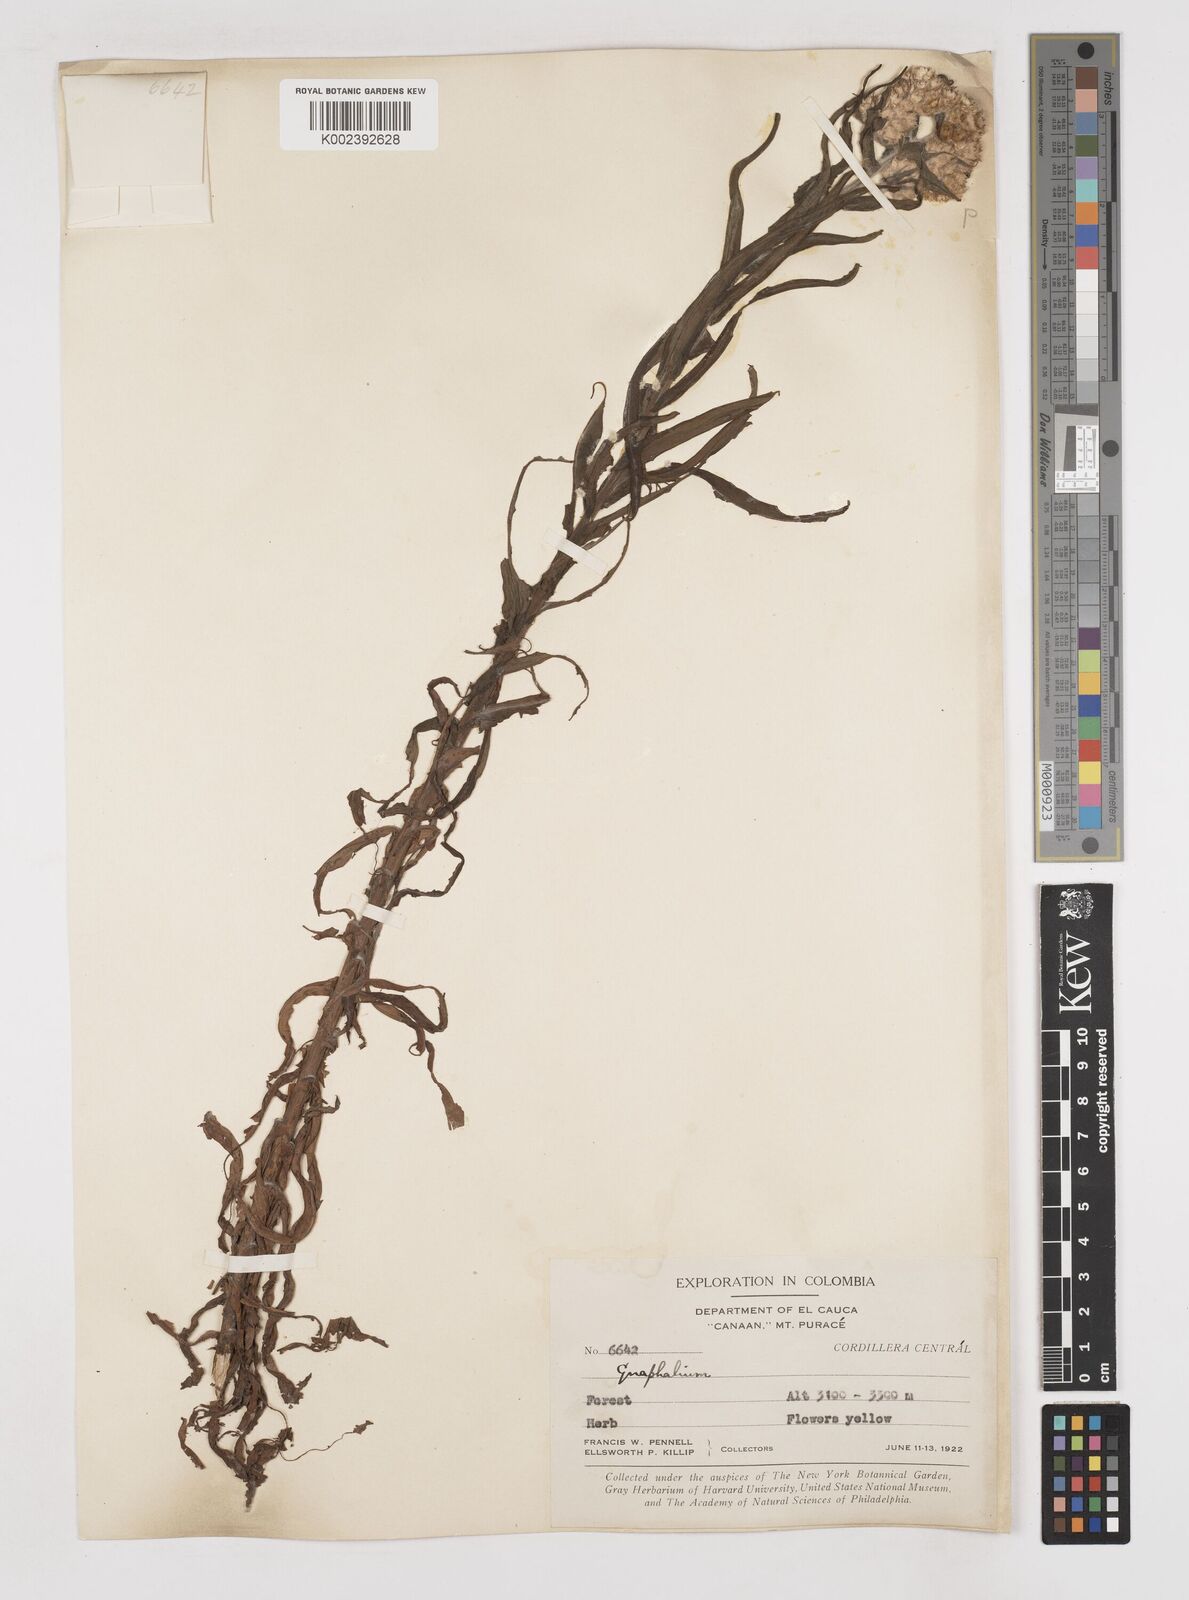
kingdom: Plantae
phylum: Tracheophyta
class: Magnoliopsida
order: Asterales
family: Asteraceae
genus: Gnaphalium
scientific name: Gnaphalium
